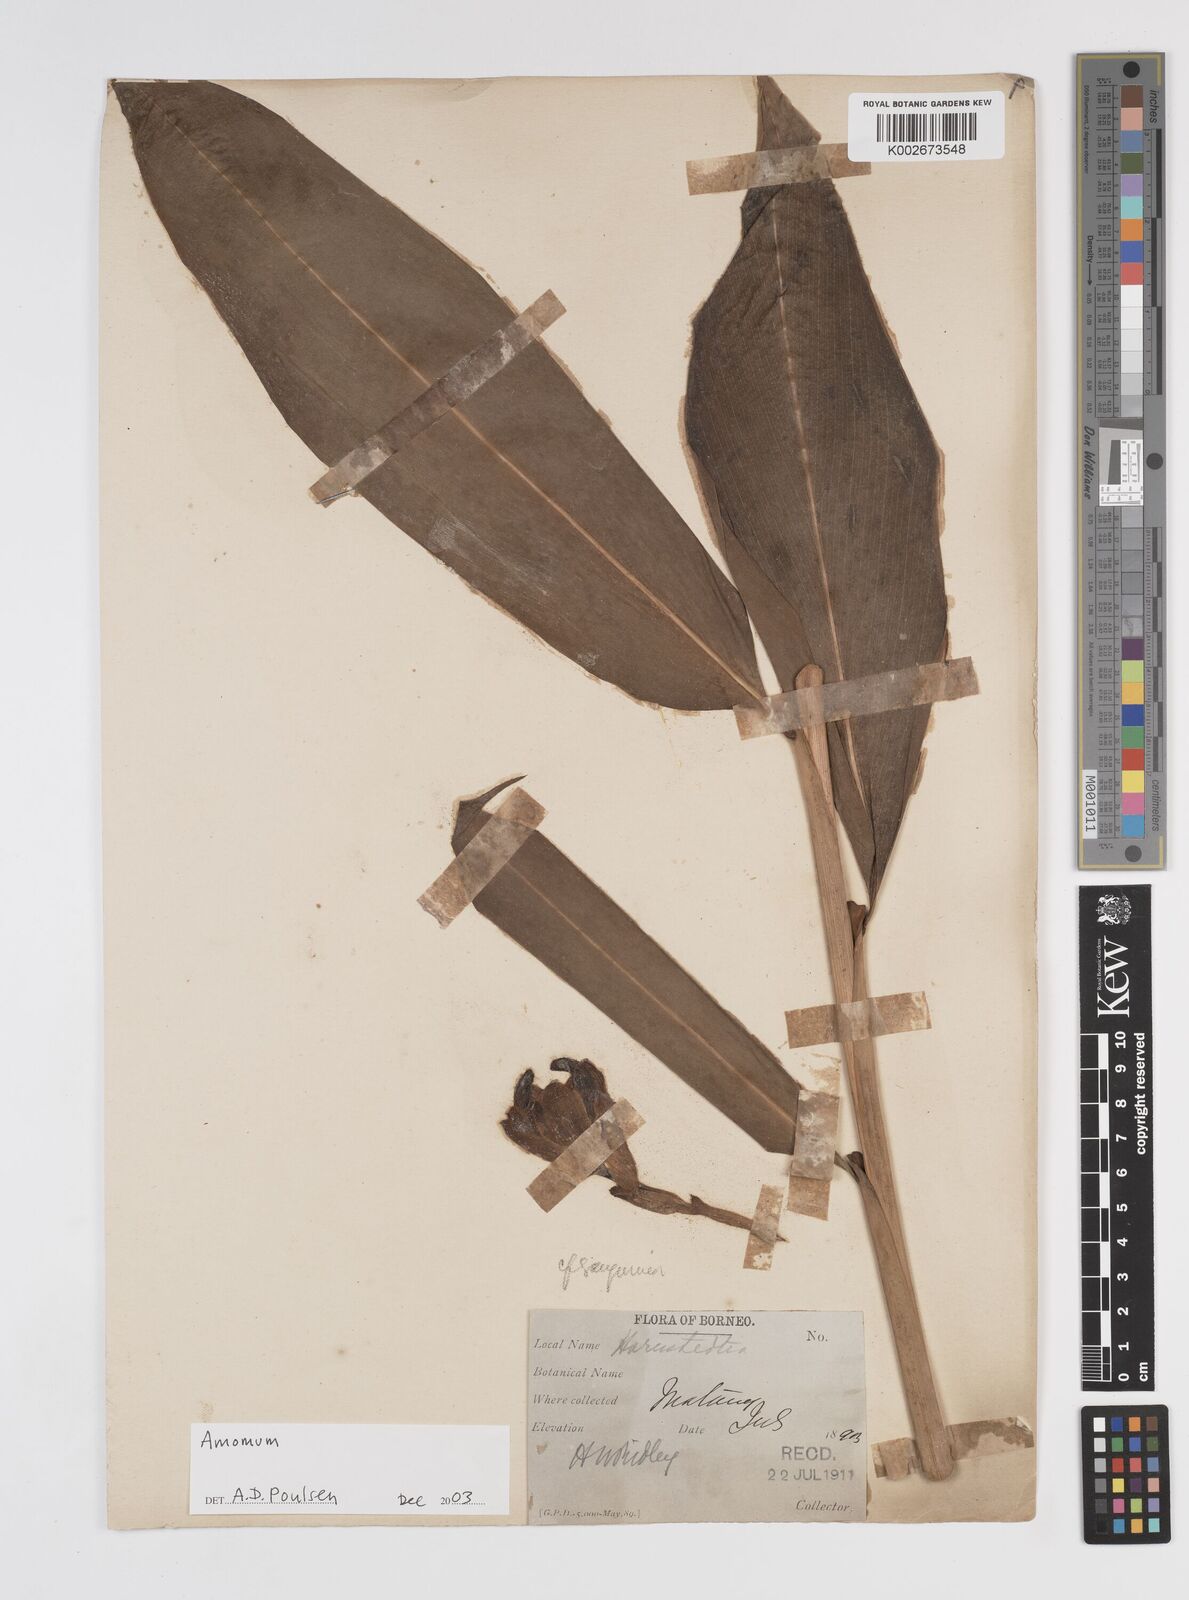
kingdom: Plantae
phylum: Tracheophyta
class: Liliopsida
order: Zingiberales
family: Zingiberaceae
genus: Amomum
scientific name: Amomum
